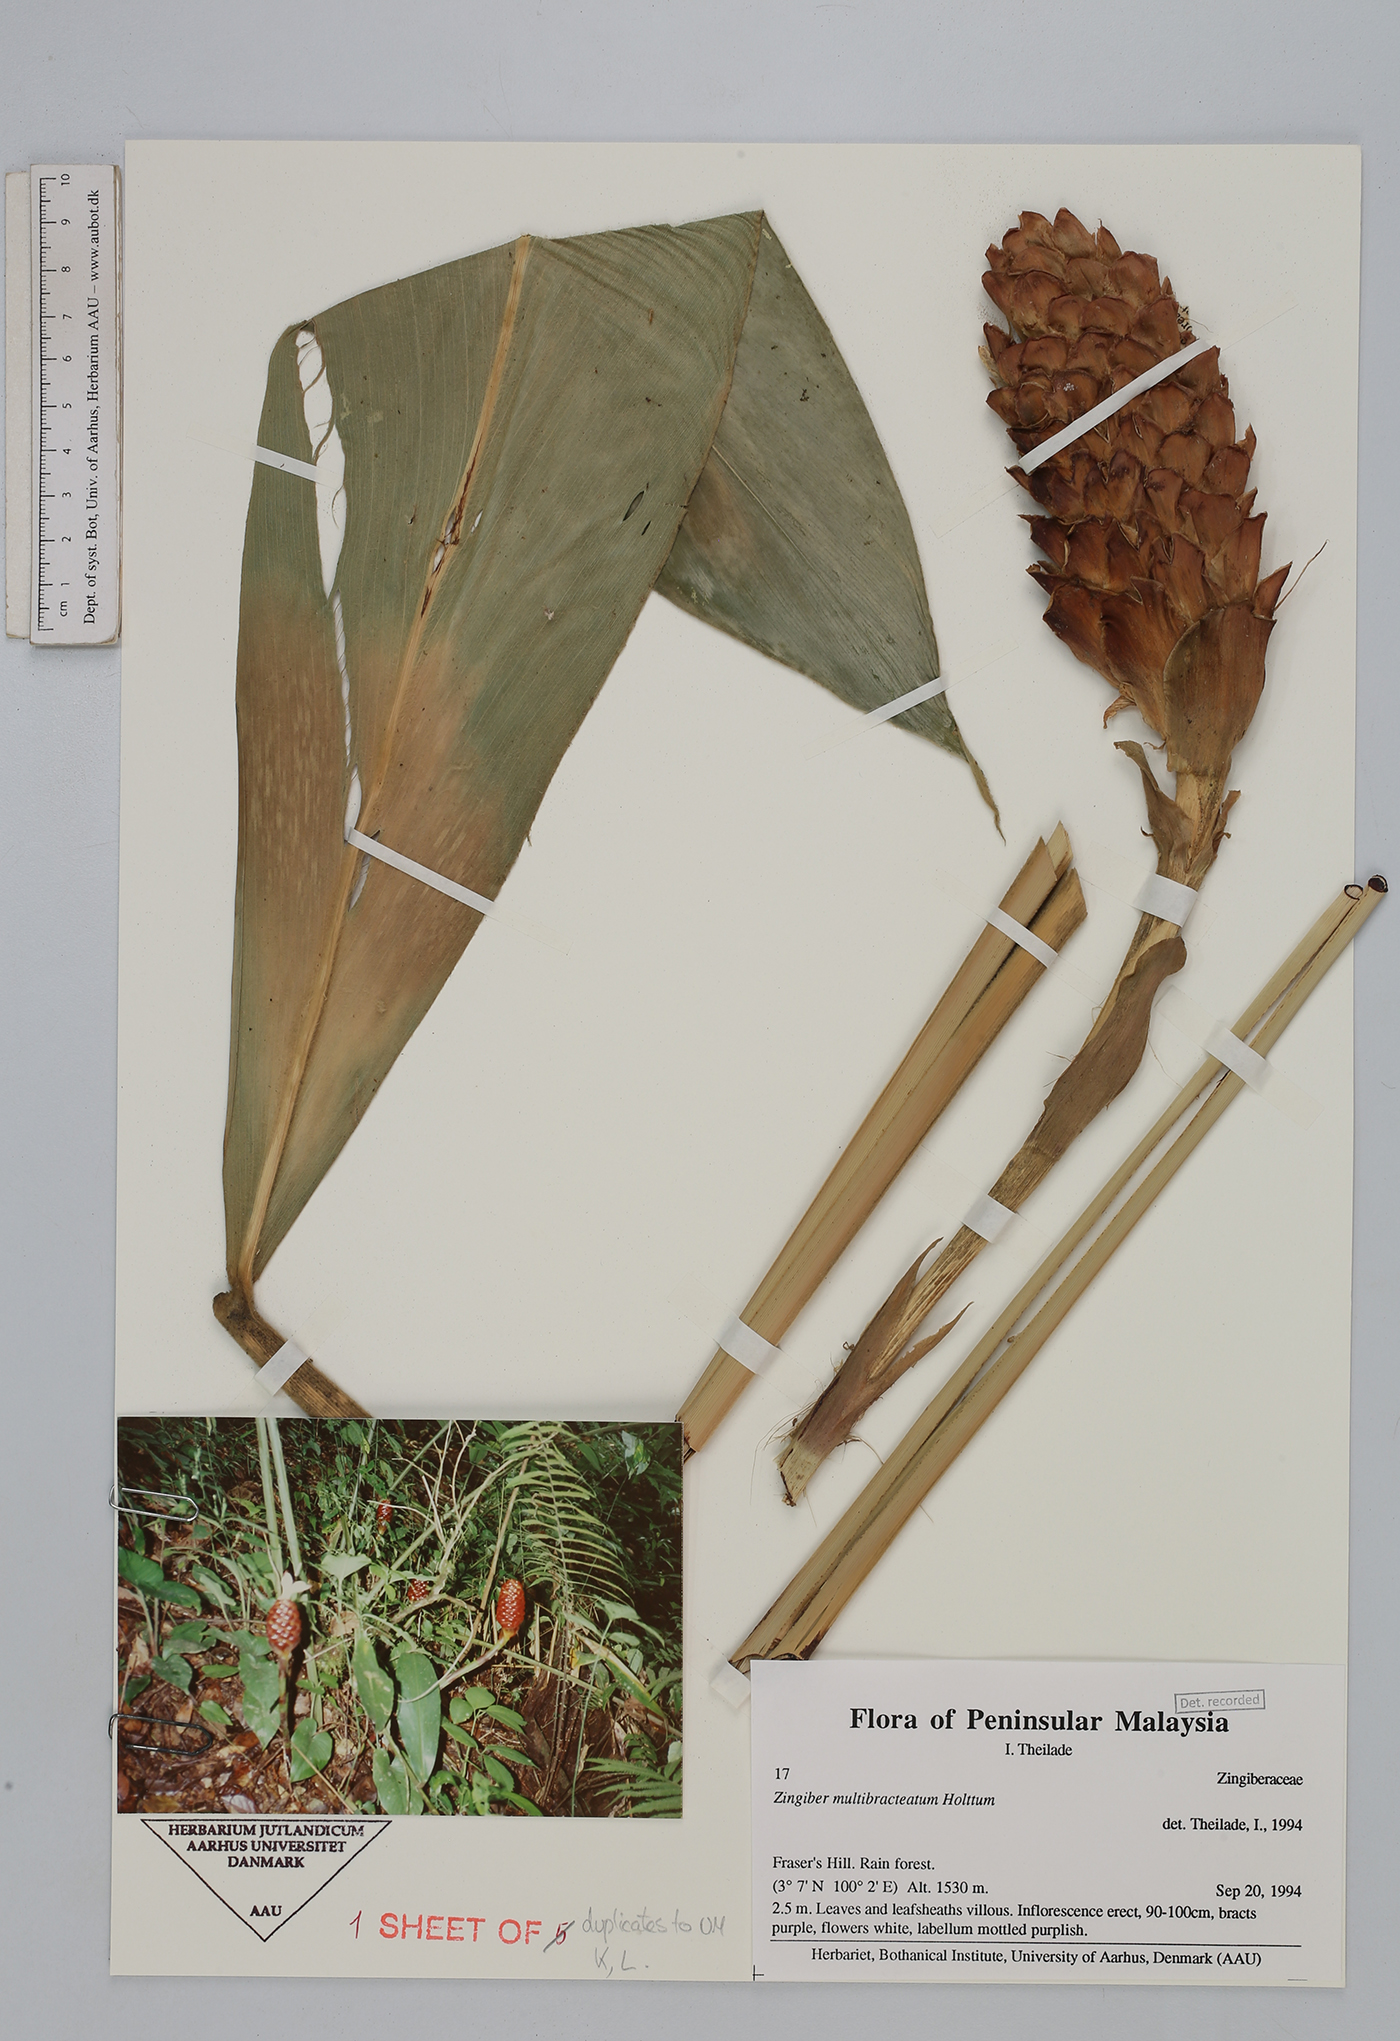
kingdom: Plantae
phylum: Tracheophyta
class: Liliopsida
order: Zingiberales
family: Zingiberaceae
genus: Zingiber
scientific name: Zingiber multibracteatum
